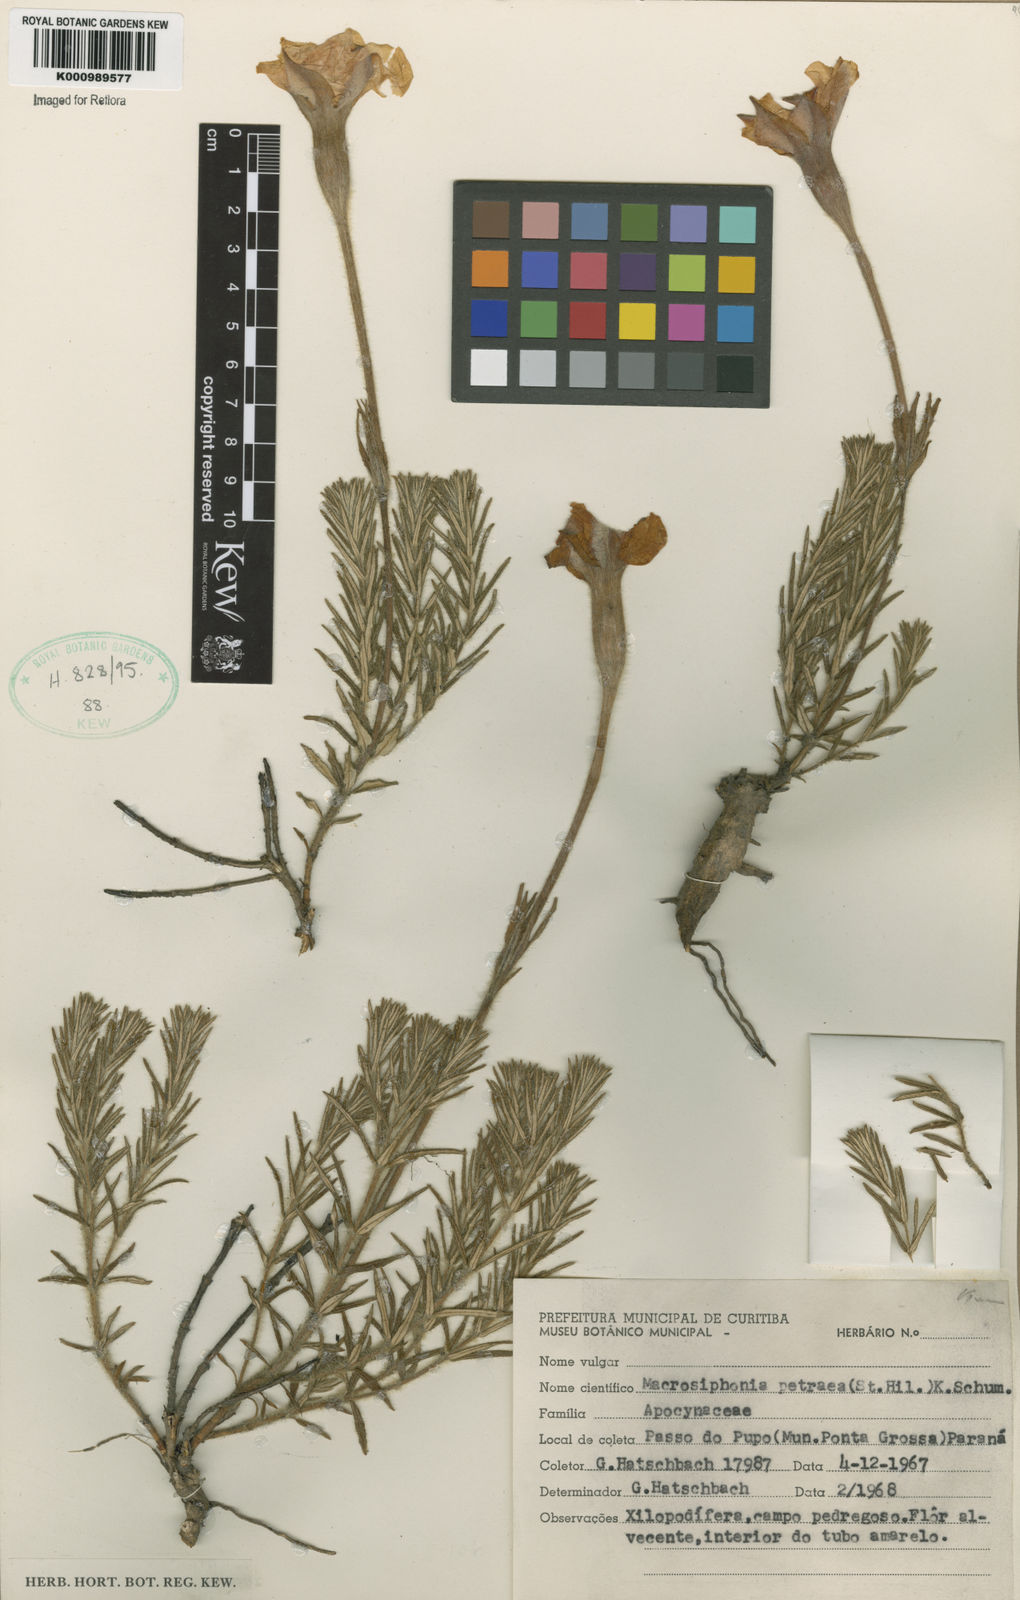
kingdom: Plantae
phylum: Tracheophyta
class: Magnoliopsida
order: Gentianales
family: Apocynaceae
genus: Mandevilla
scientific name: Mandevilla
